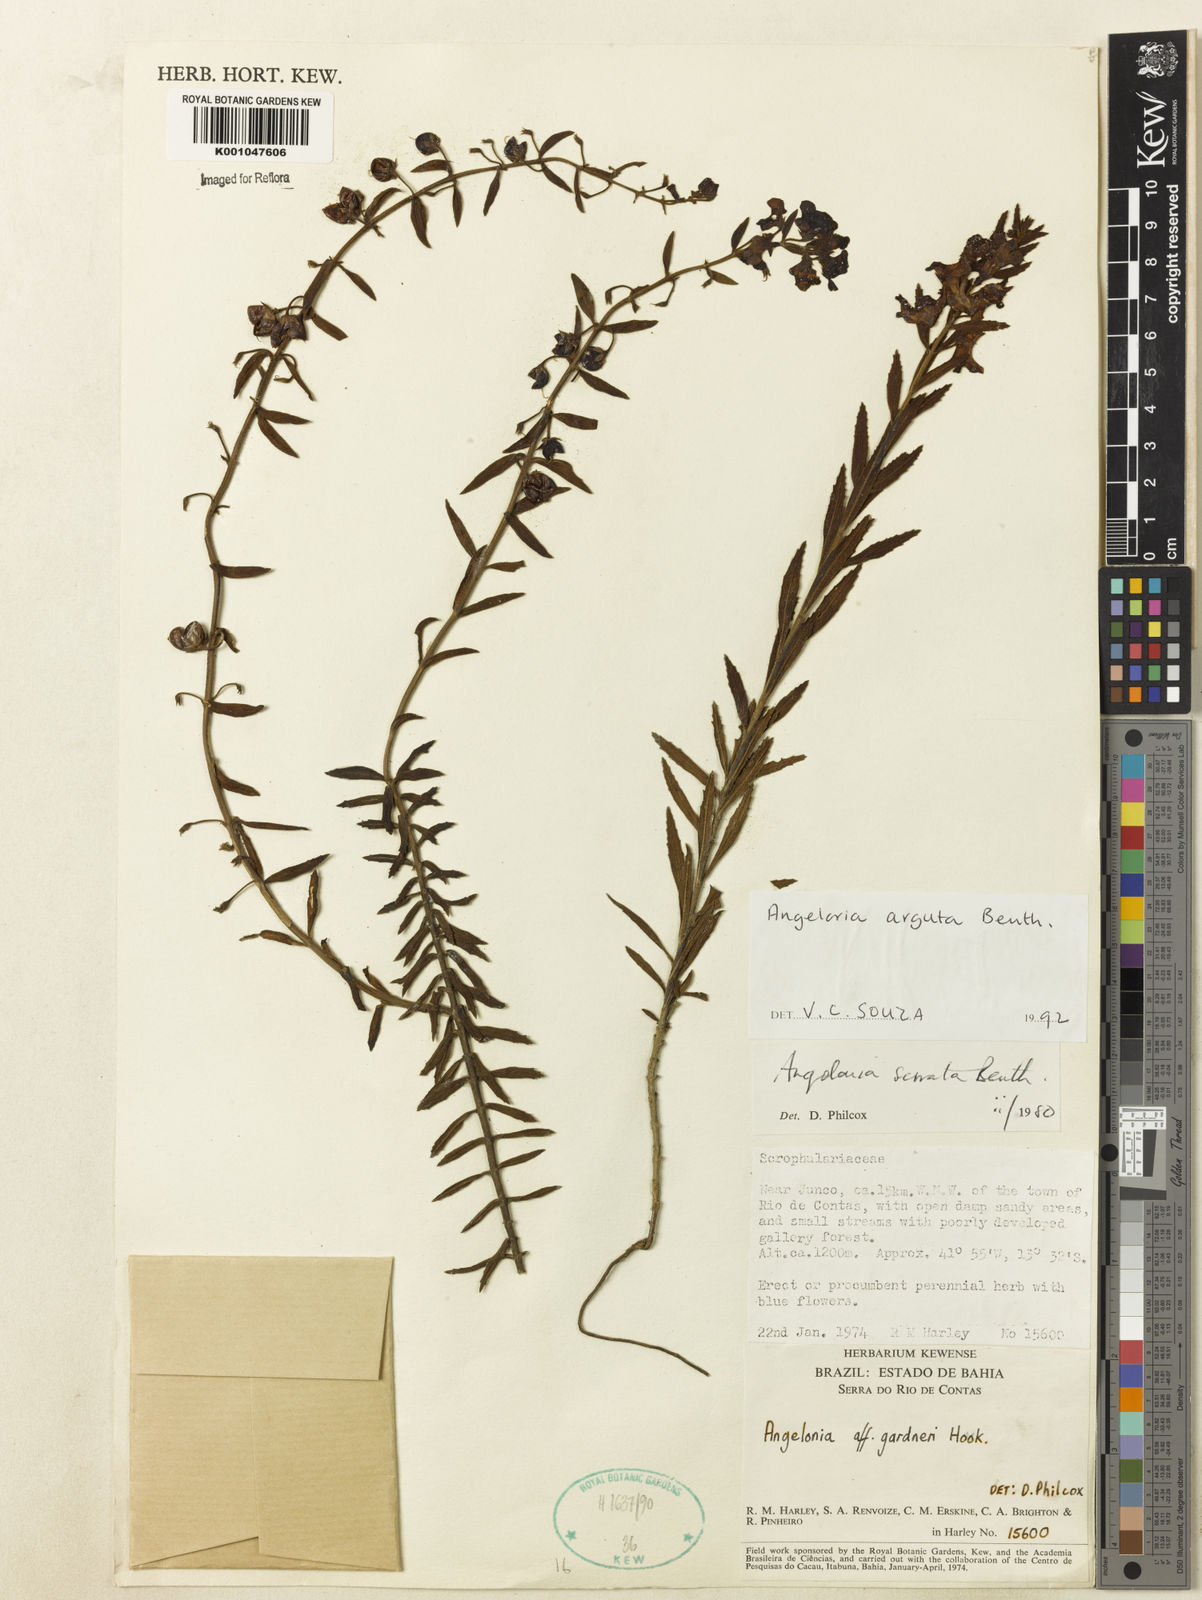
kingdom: Plantae
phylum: Tracheophyta
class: Magnoliopsida
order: Lamiales
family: Plantaginaceae
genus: Angelonia
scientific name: Angelonia arguta
